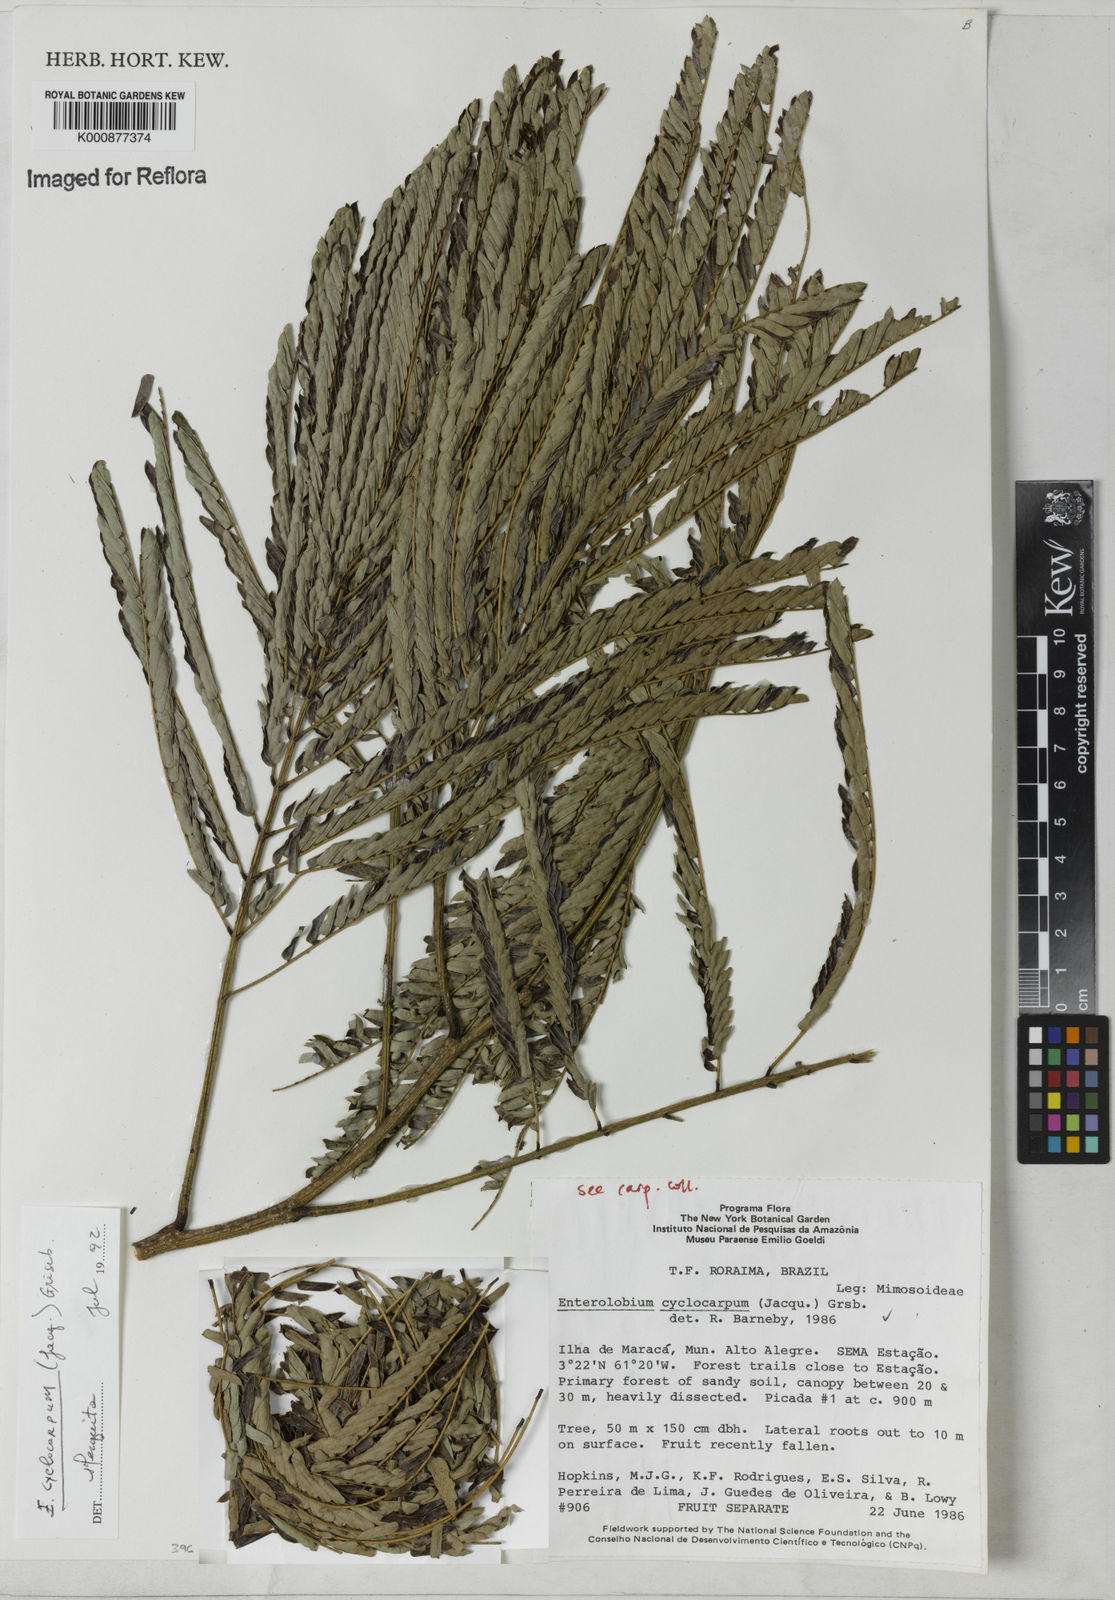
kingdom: Plantae
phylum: Tracheophyta
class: Magnoliopsida
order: Fabales
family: Fabaceae
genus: Enterolobium
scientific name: Enterolobium cyclocarpum
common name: Ear tree
